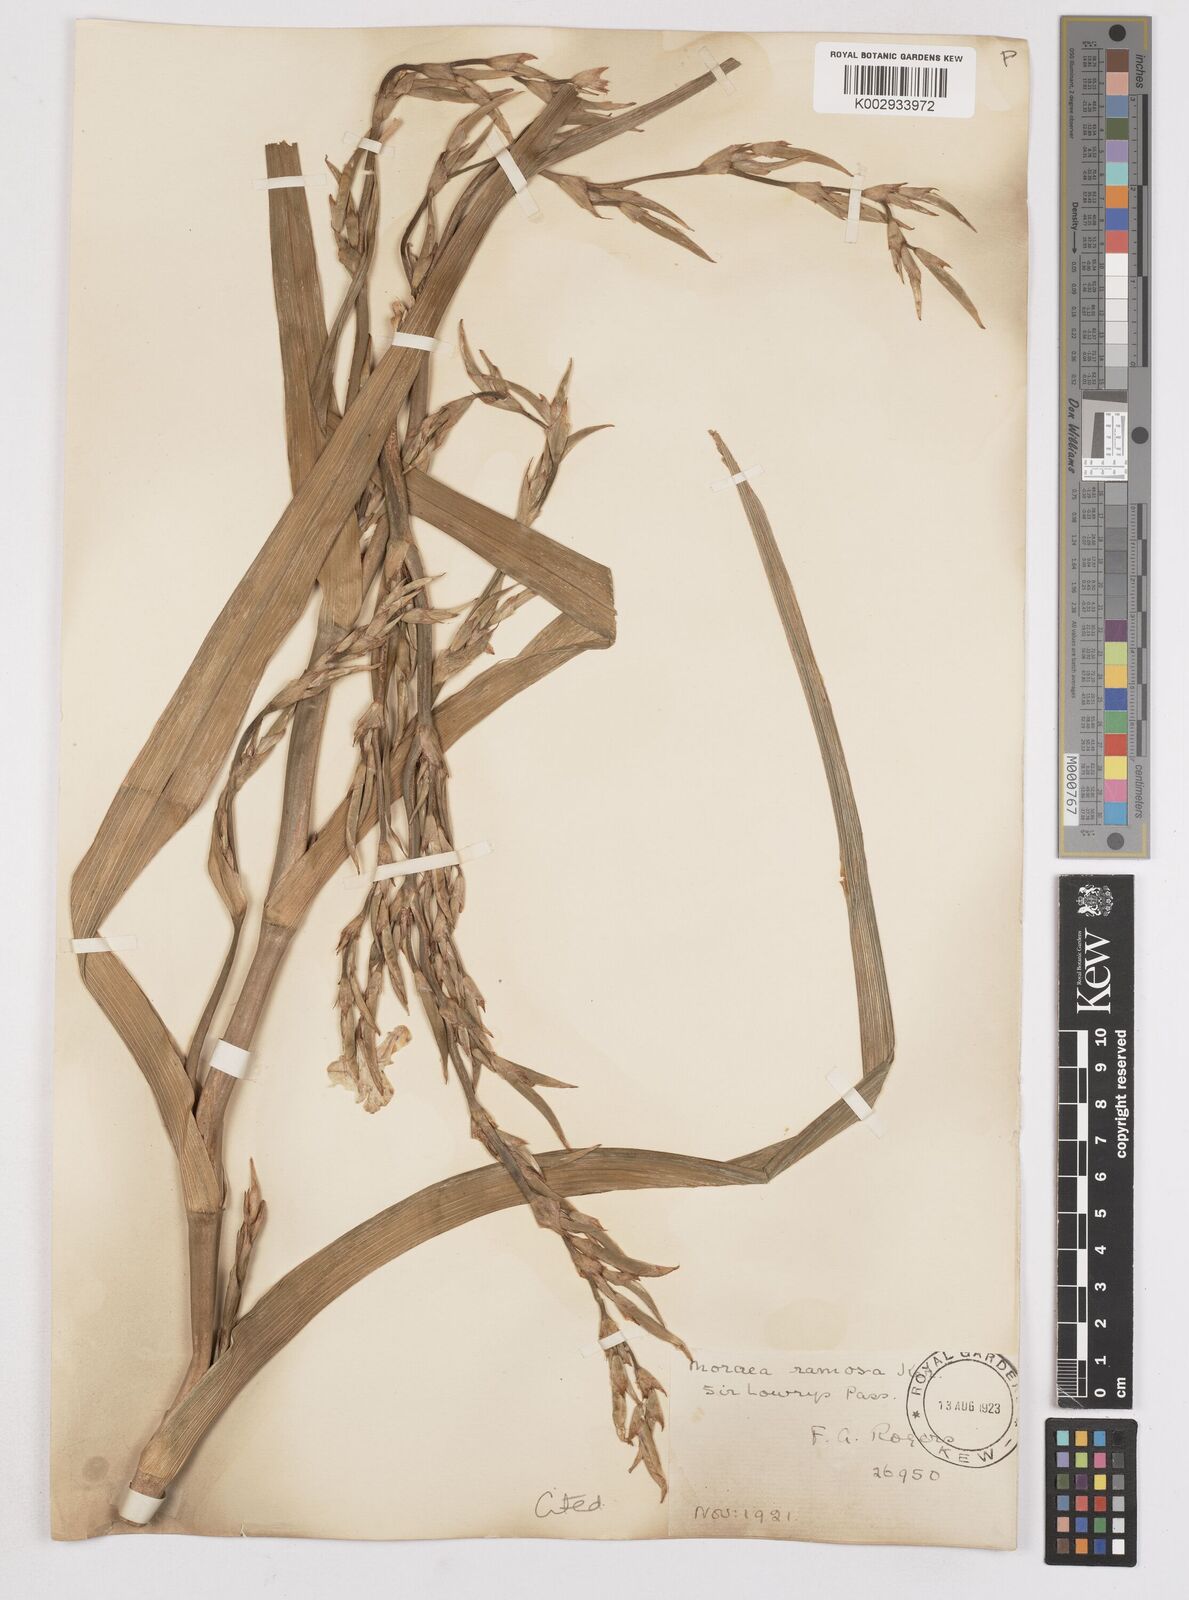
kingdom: Plantae
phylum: Tracheophyta
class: Liliopsida
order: Asparagales
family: Iridaceae
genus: Moraea
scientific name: Moraea ramosissima
